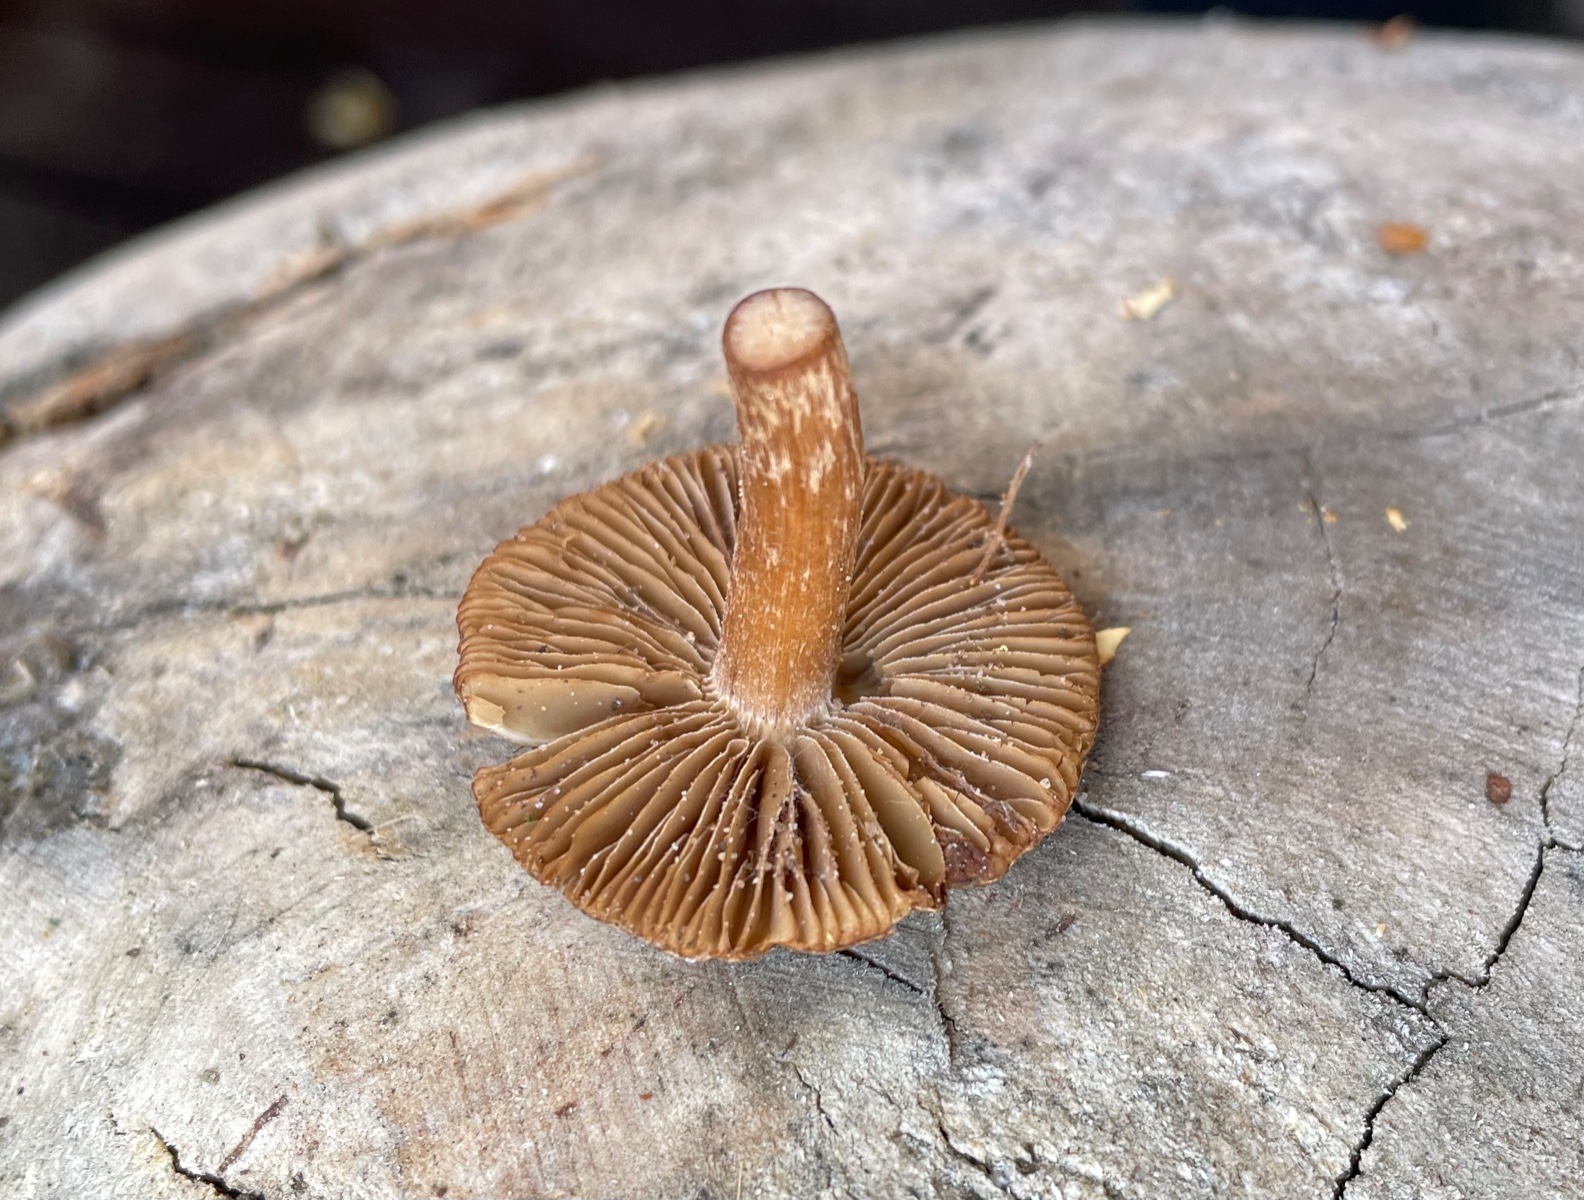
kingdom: Fungi
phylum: Basidiomycota
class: Agaricomycetes
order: Agaricales
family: Inocybaceae
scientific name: Inocybaceae
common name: trævlhatfamilien
